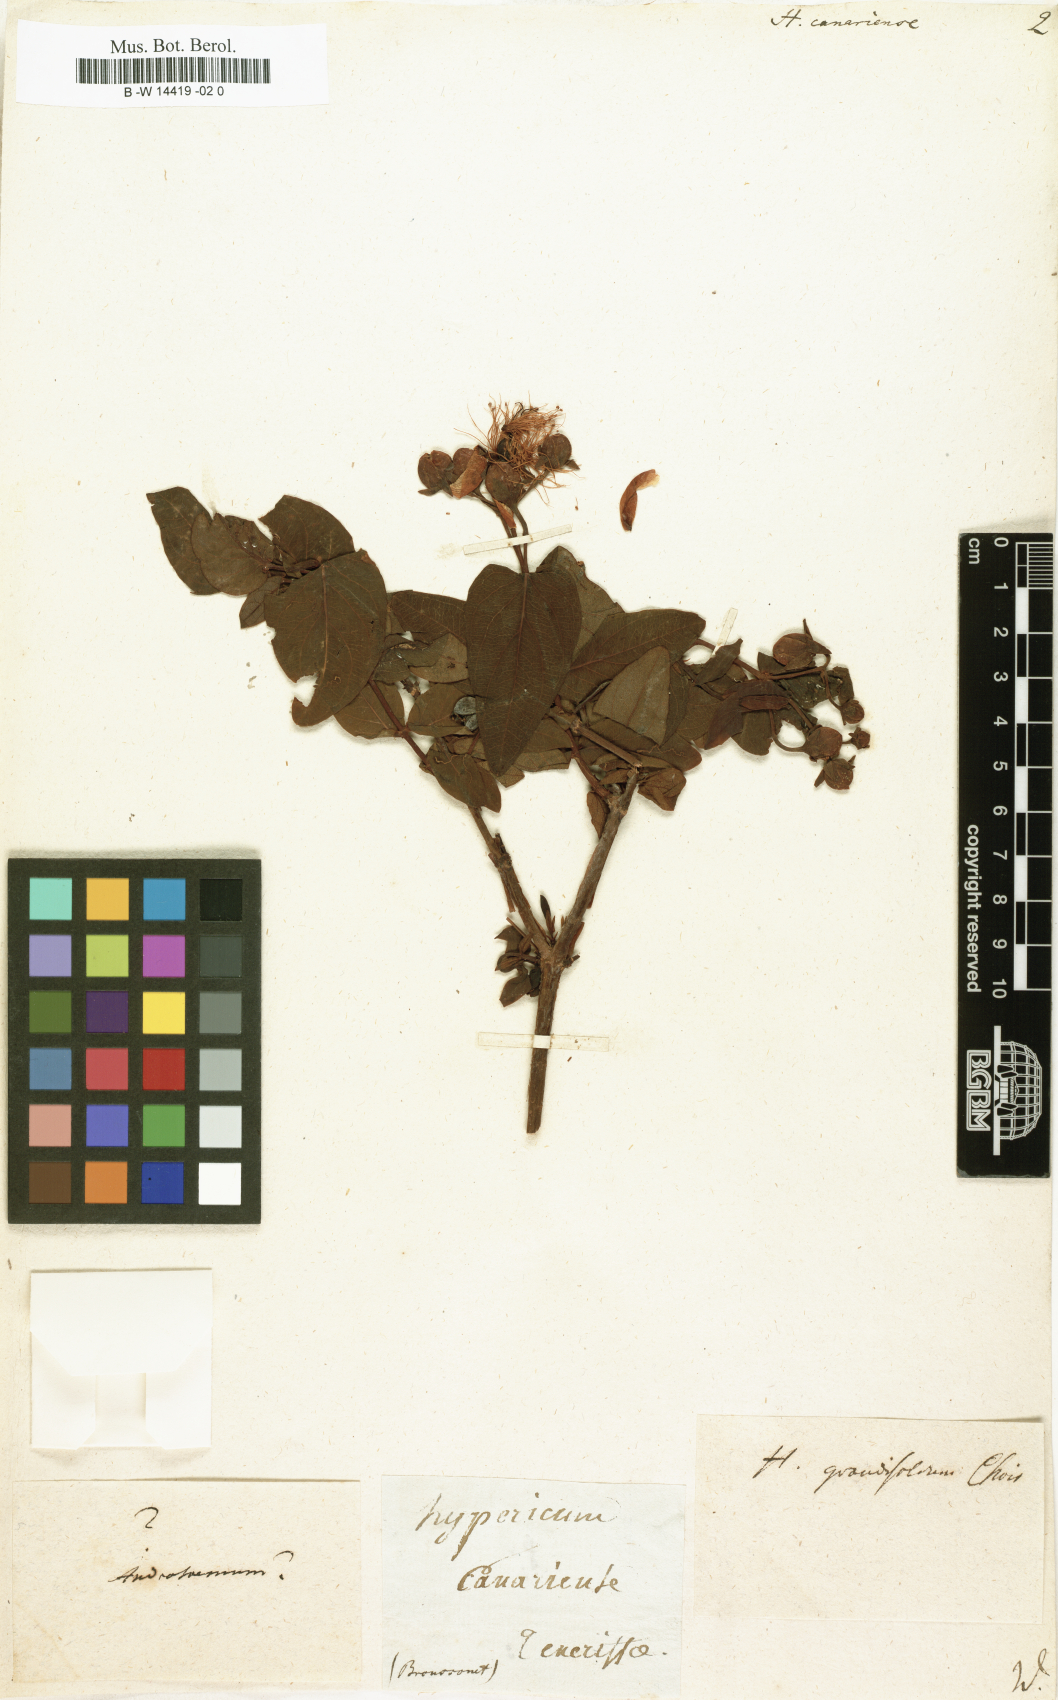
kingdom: Plantae
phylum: Tracheophyta
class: Magnoliopsida
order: Malpighiales
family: Hypericaceae
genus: Hypericum
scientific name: Hypericum canariense
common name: Canary island st. johnswort
